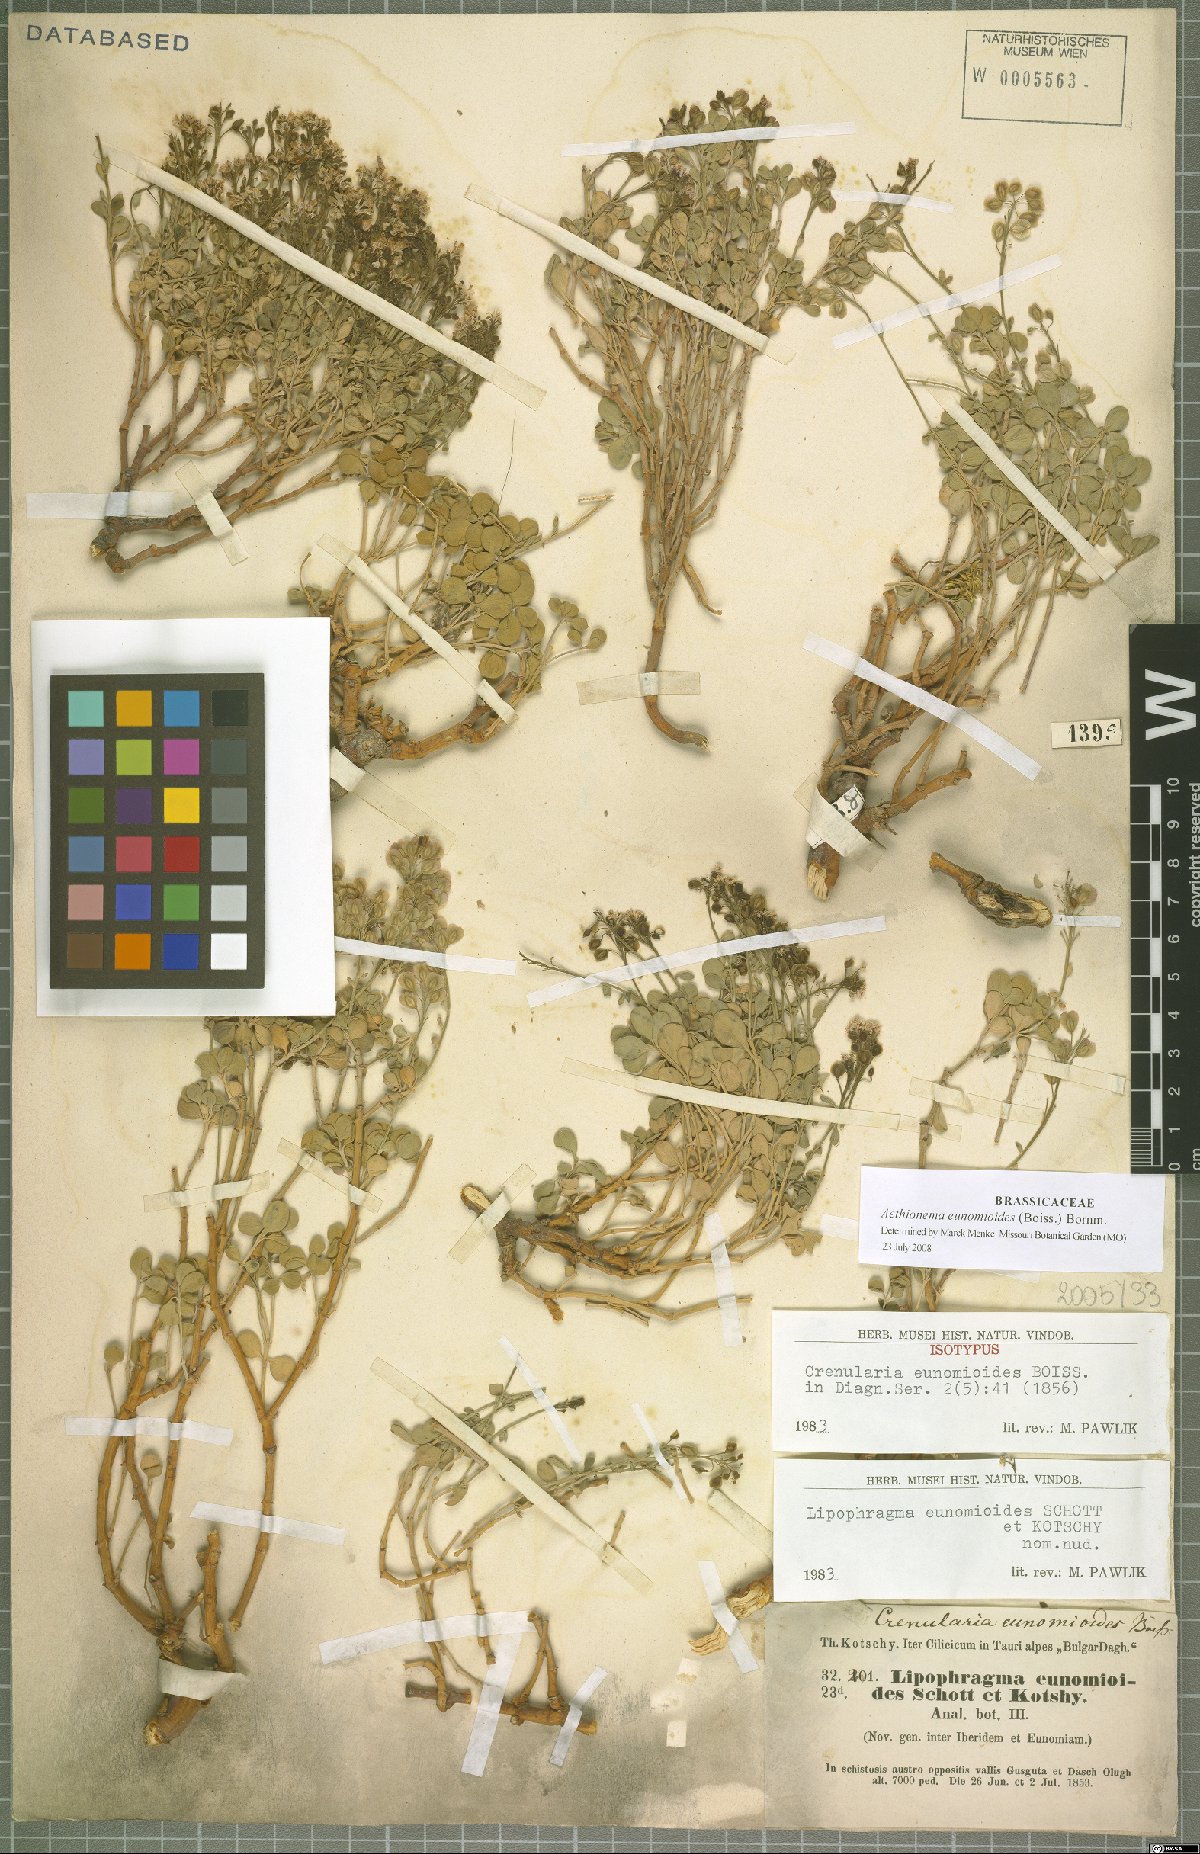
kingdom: Plantae
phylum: Tracheophyta
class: Magnoliopsida
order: Brassicales
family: Brassicaceae
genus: Aethionema
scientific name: Aethionema eunomioides
